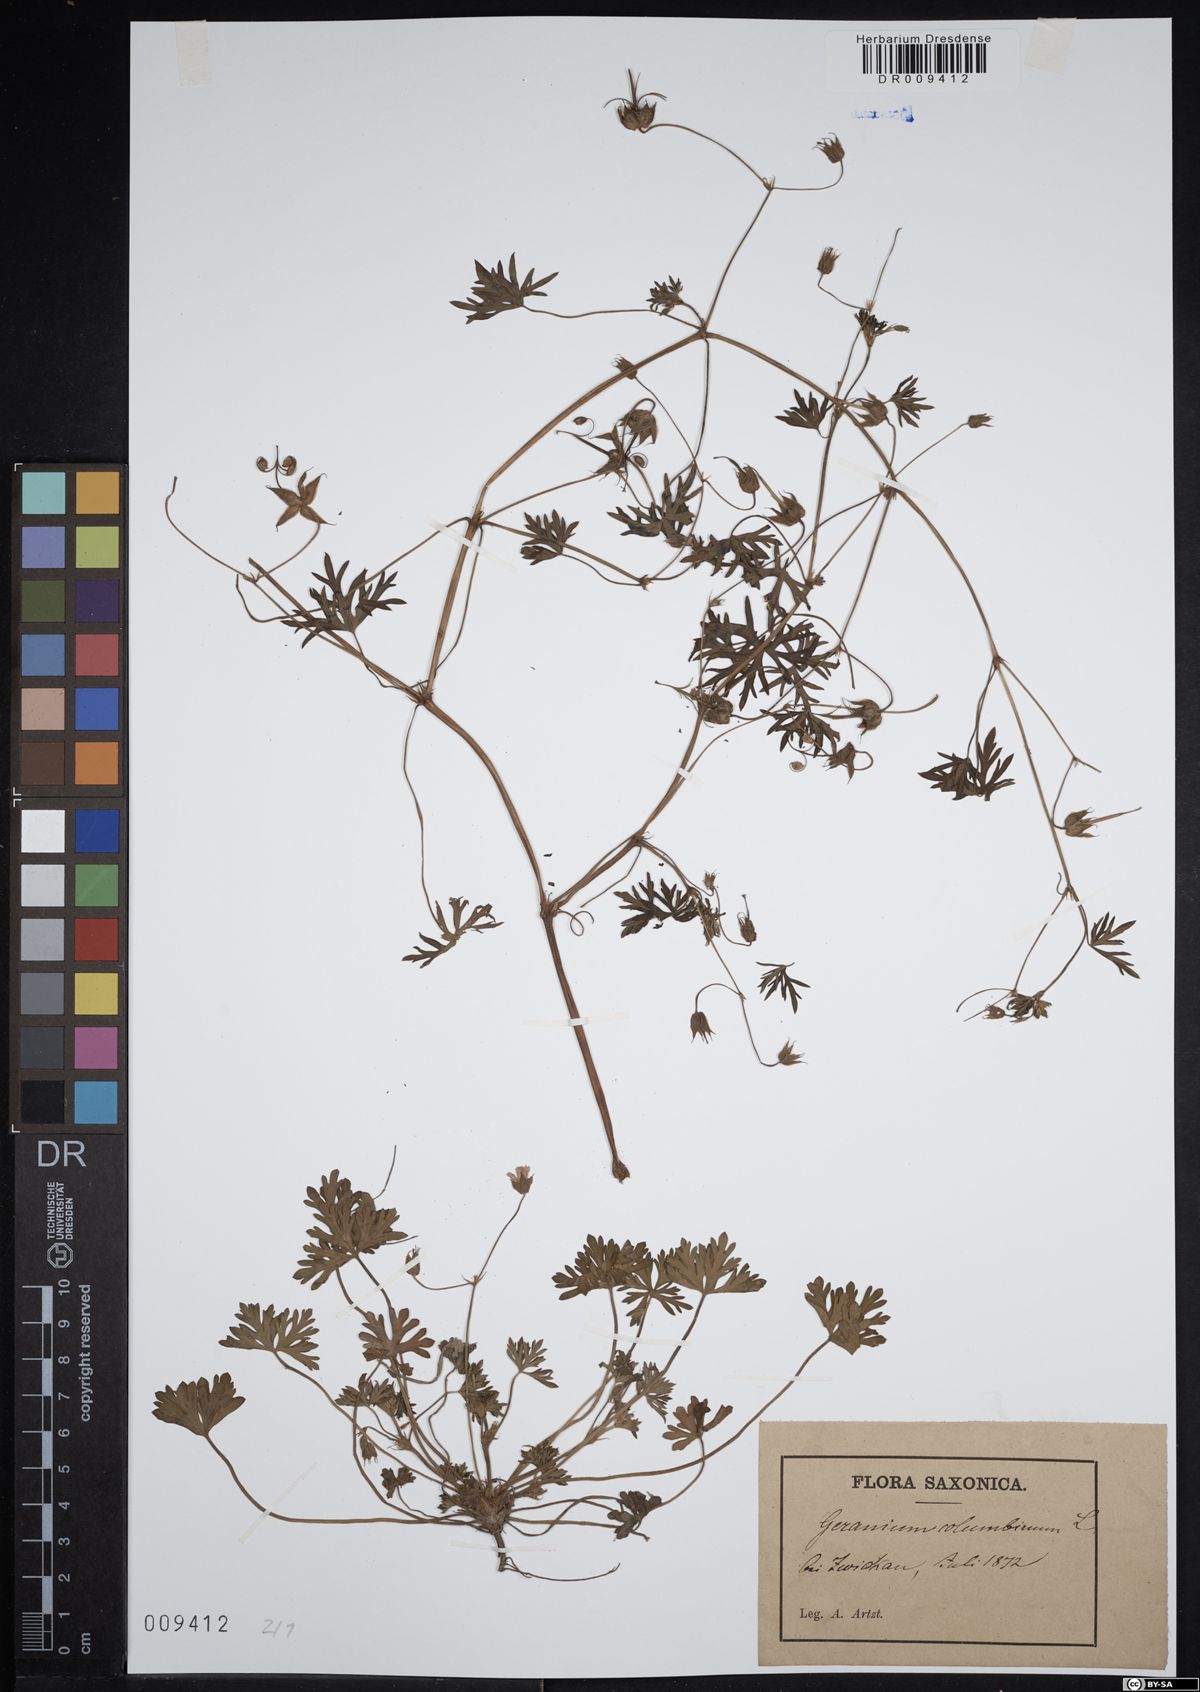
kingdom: Plantae
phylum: Tracheophyta
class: Magnoliopsida
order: Geraniales
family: Geraniaceae
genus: Geranium
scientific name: Geranium columbinum
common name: Long-stalked crane's-bill
